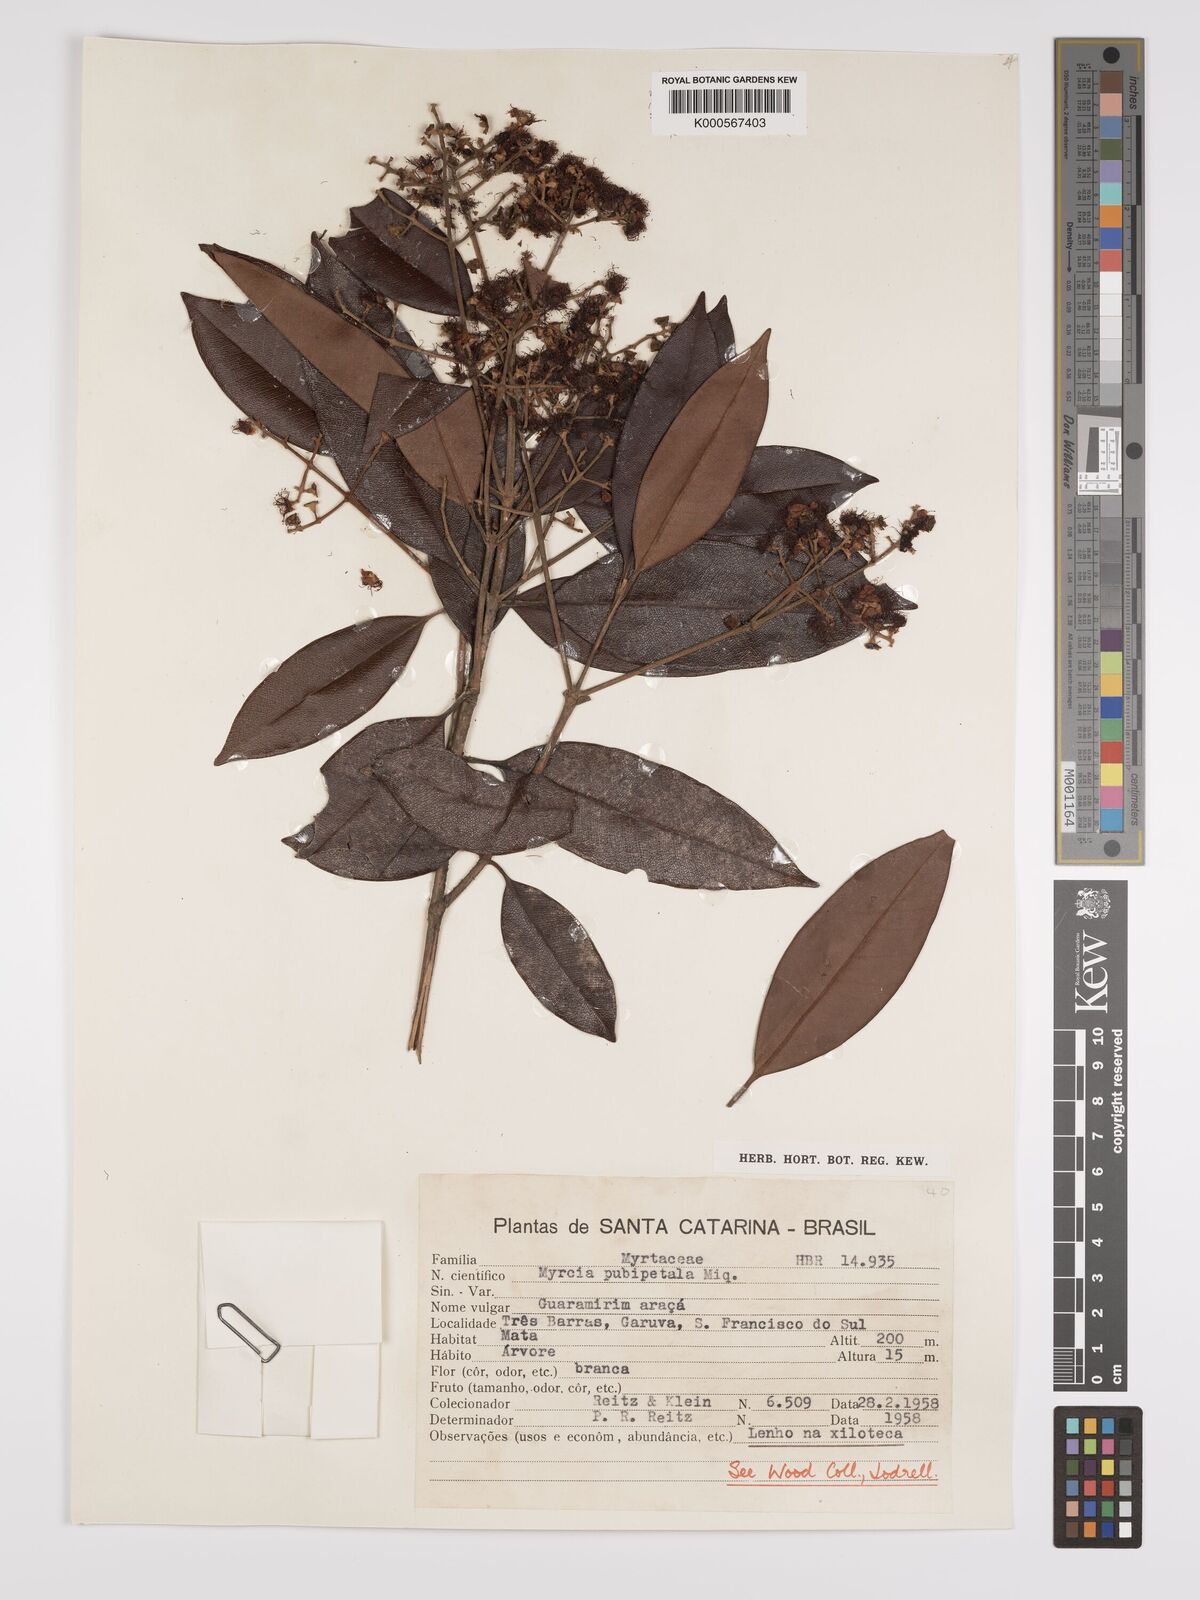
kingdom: Plantae
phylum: Tracheophyta
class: Magnoliopsida
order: Myrtales
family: Myrtaceae
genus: Myrcia
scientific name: Myrcia pubipetala
